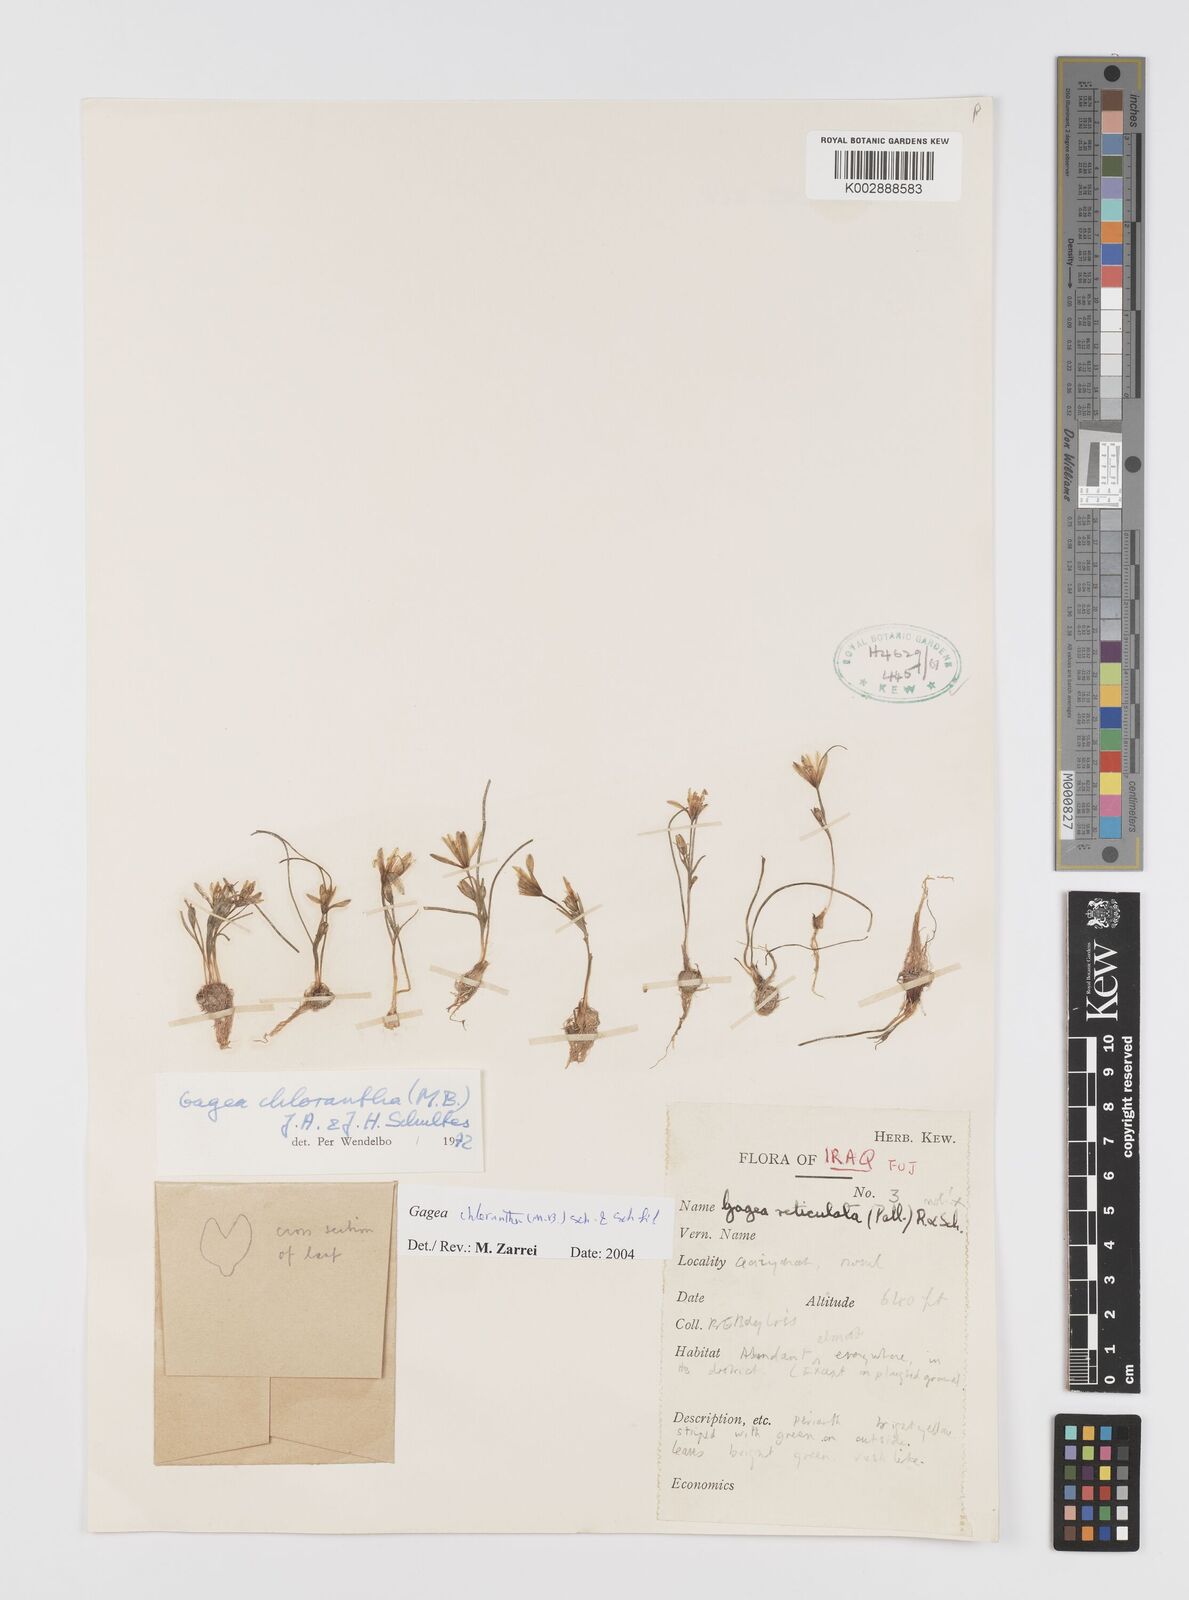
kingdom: Plantae
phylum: Tracheophyta
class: Liliopsida
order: Liliales
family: Liliaceae
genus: Gagea
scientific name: Gagea chlorantha
